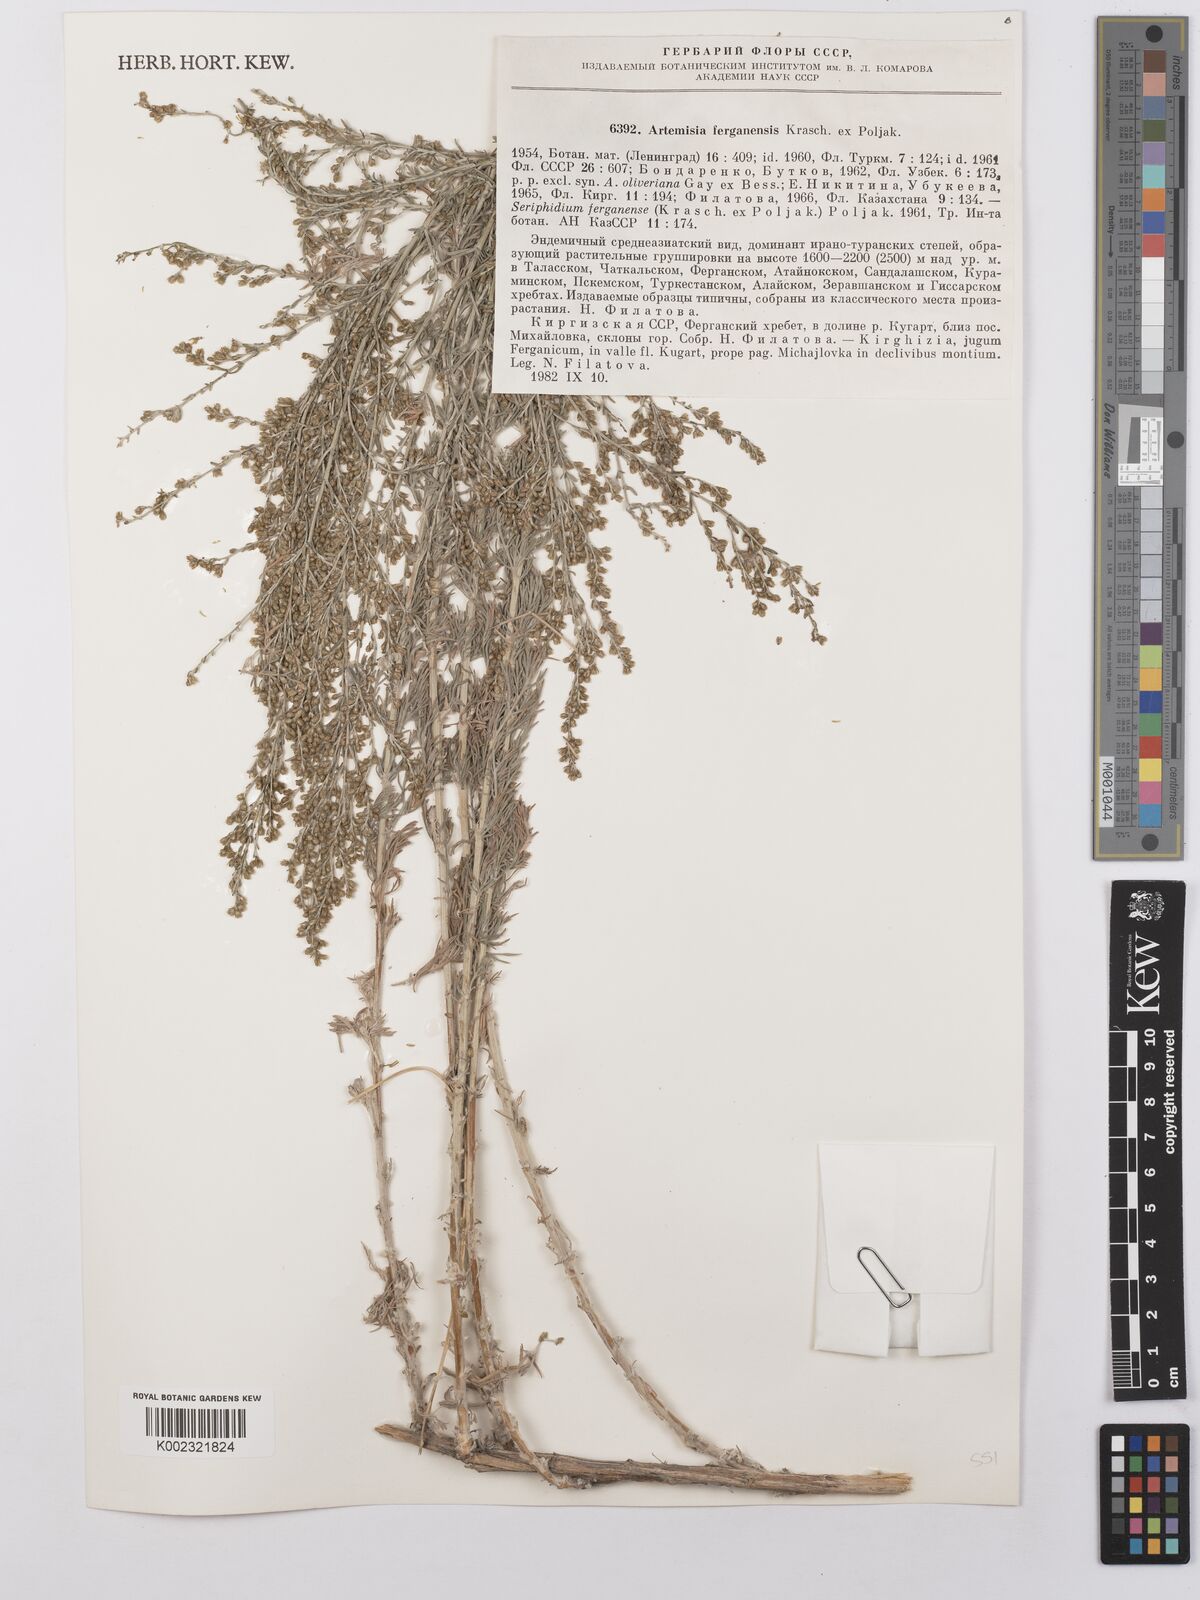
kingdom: Plantae
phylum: Tracheophyta
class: Magnoliopsida
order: Asterales
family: Asteraceae
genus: Artemisia
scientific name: Artemisia ferganensis
